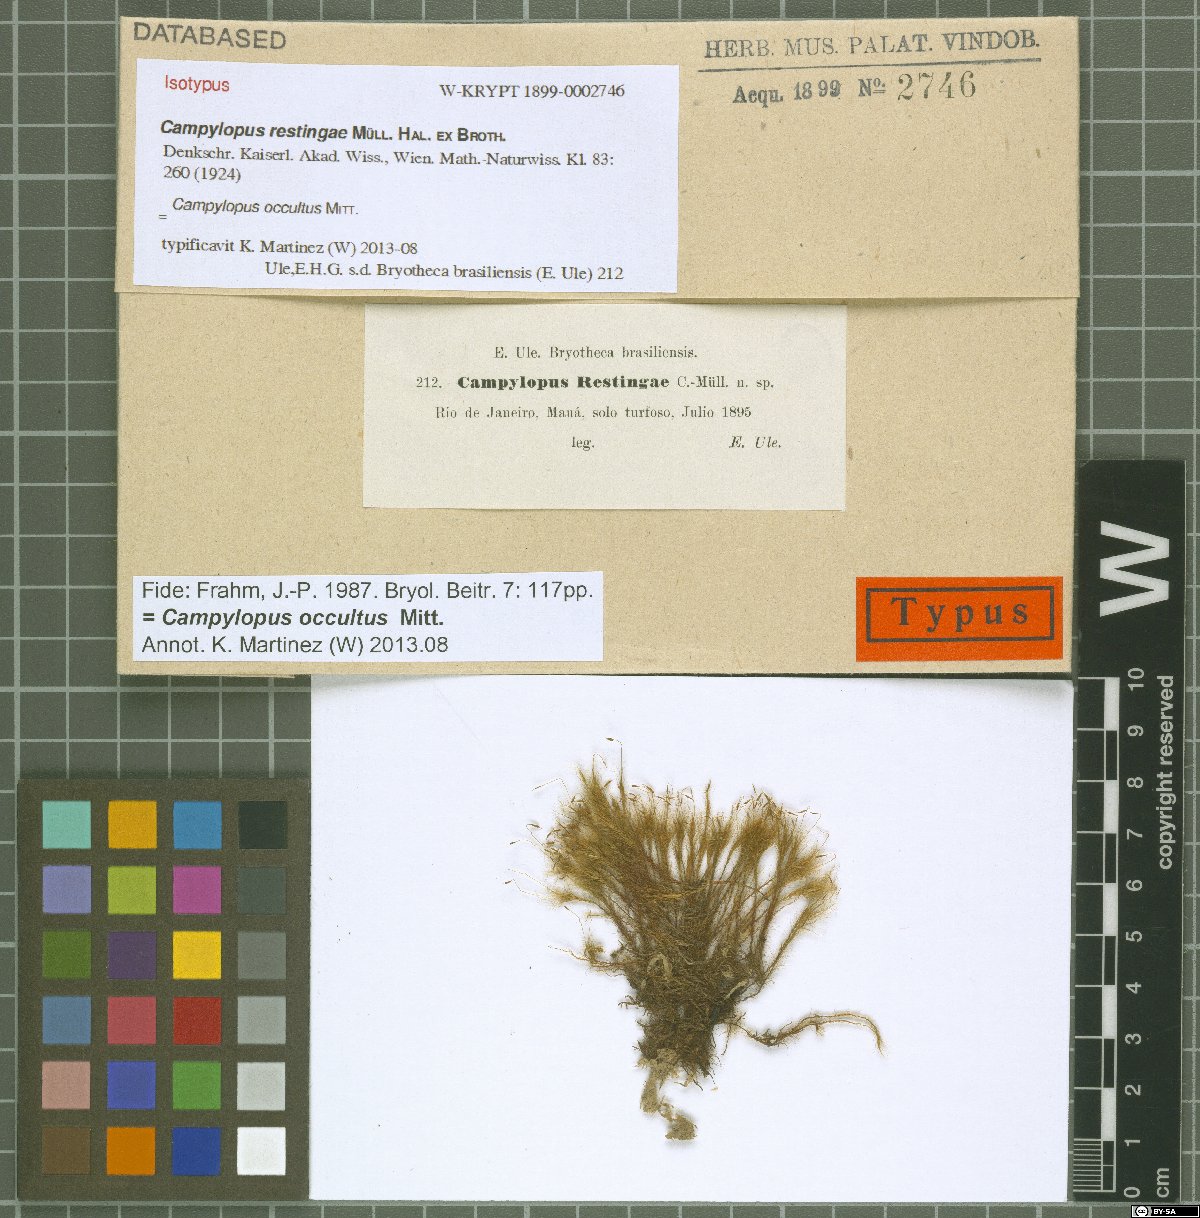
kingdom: Plantae
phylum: Bryophyta
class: Bryopsida
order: Dicranales
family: Leucobryaceae
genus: Campylopus
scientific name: Campylopus occultus
